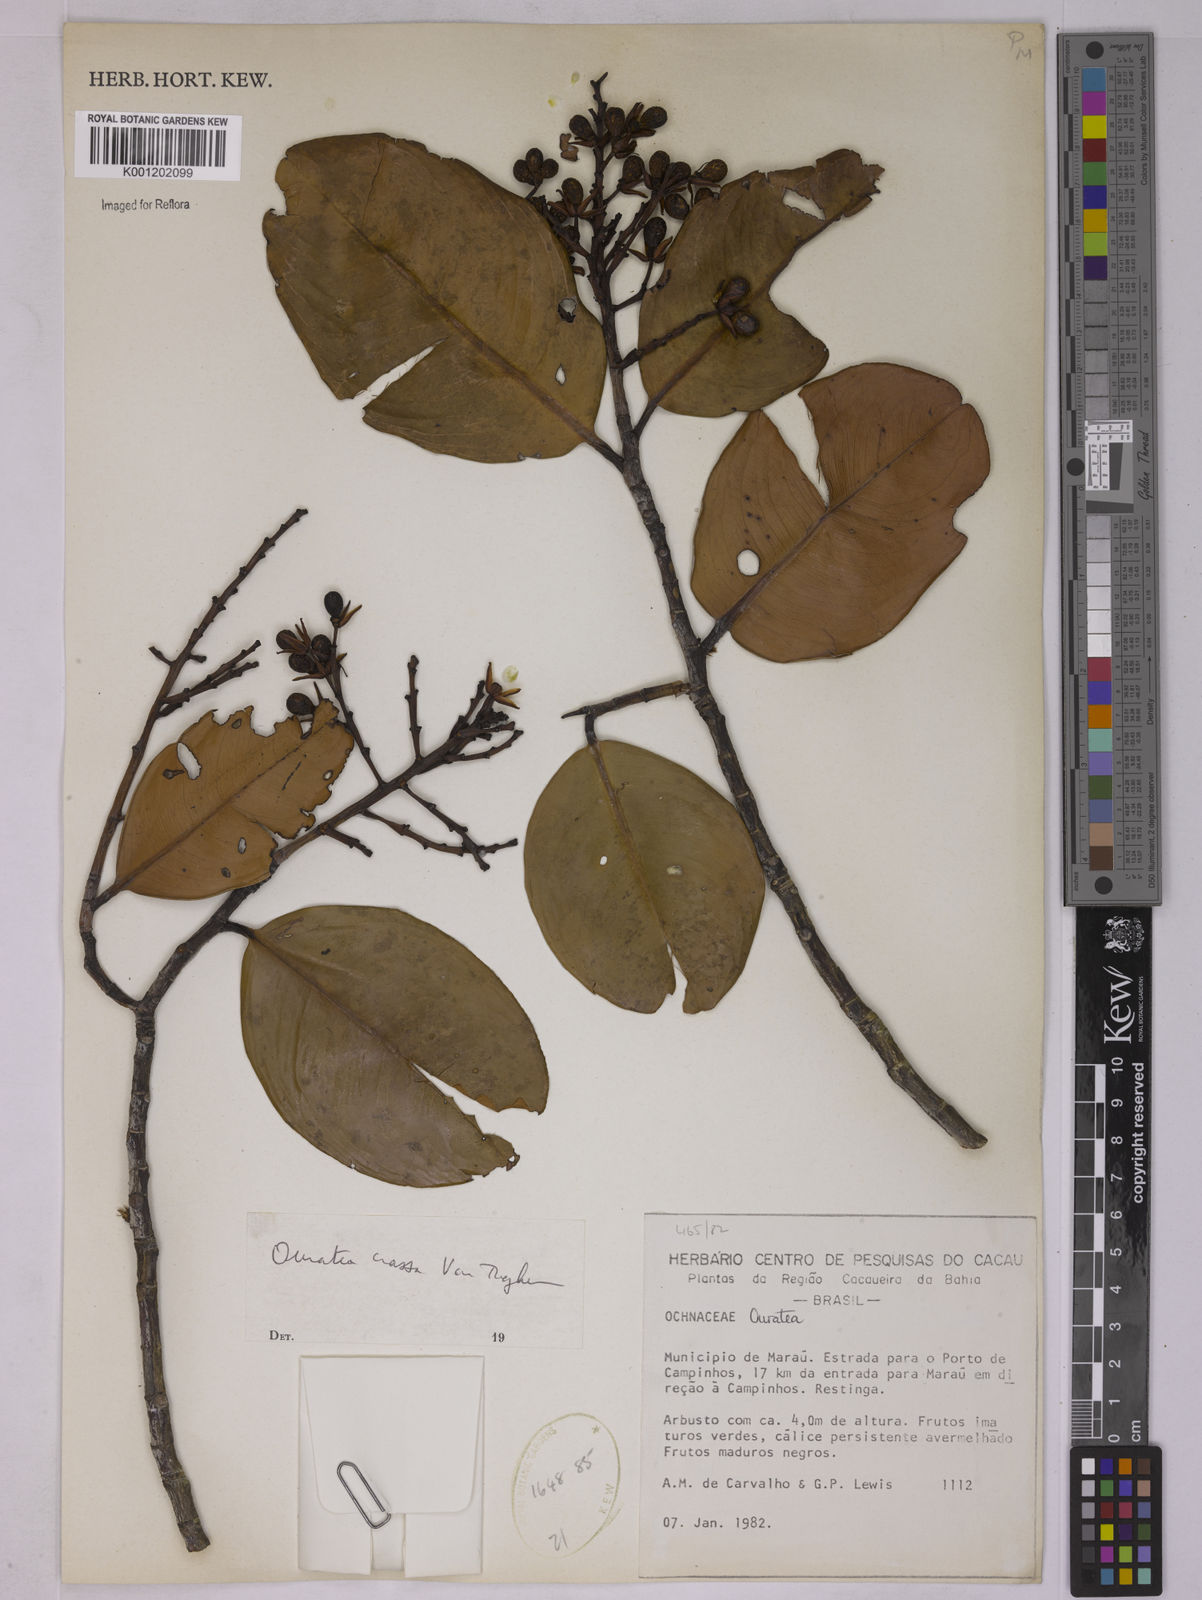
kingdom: Plantae
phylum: Tracheophyta
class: Magnoliopsida
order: Malpighiales
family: Ochnaceae
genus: Ouratea
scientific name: Ouratea crassa
